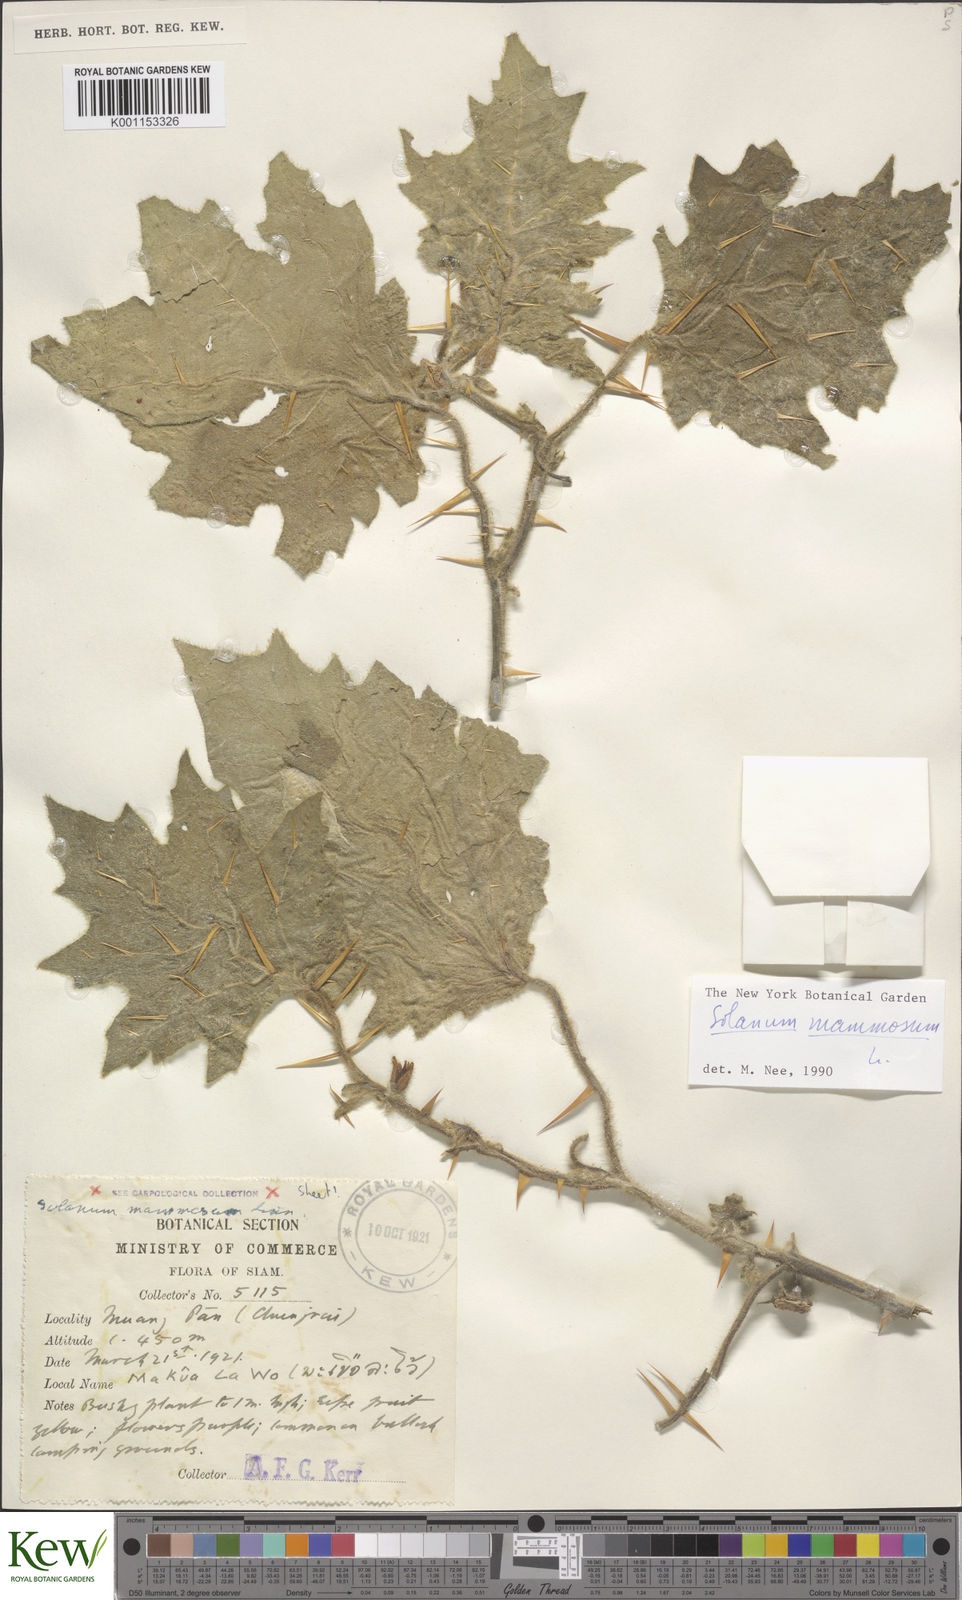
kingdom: Plantae
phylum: Tracheophyta
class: Magnoliopsida
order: Solanales
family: Solanaceae
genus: Solanum
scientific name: Solanum mammosum
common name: Nipple fruit
